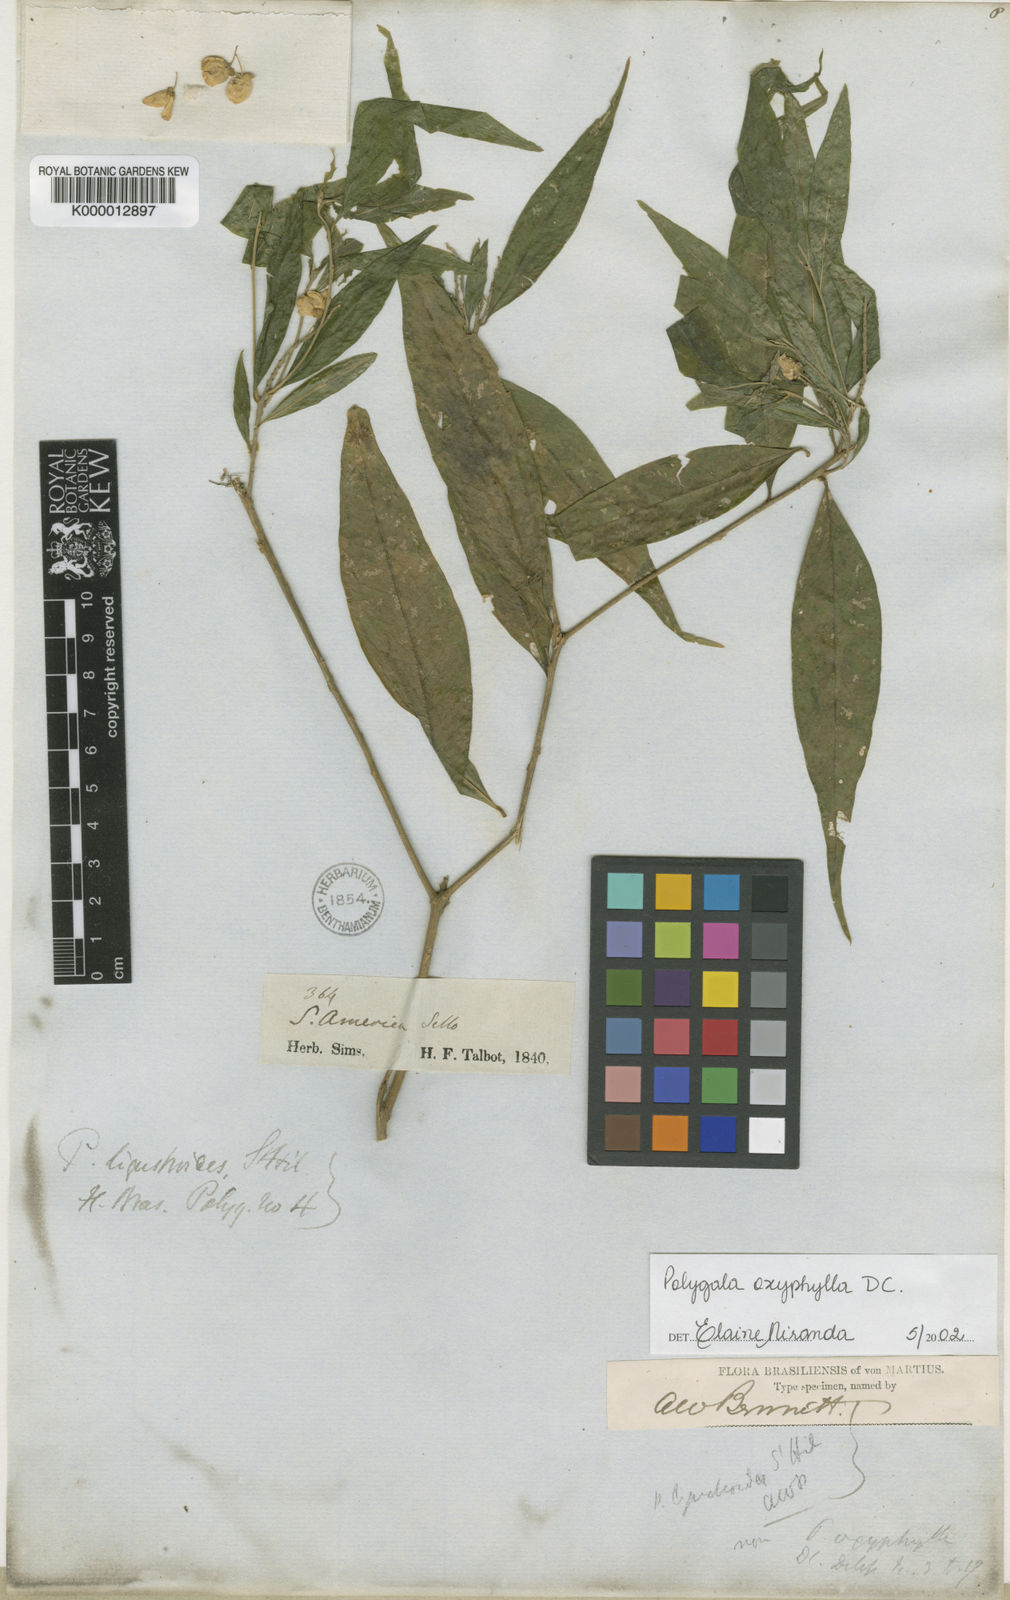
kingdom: Plantae
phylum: Tracheophyta
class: Magnoliopsida
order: Fabales
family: Polygalaceae
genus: Caamembeca
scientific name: Caamembeca oxyphylla
